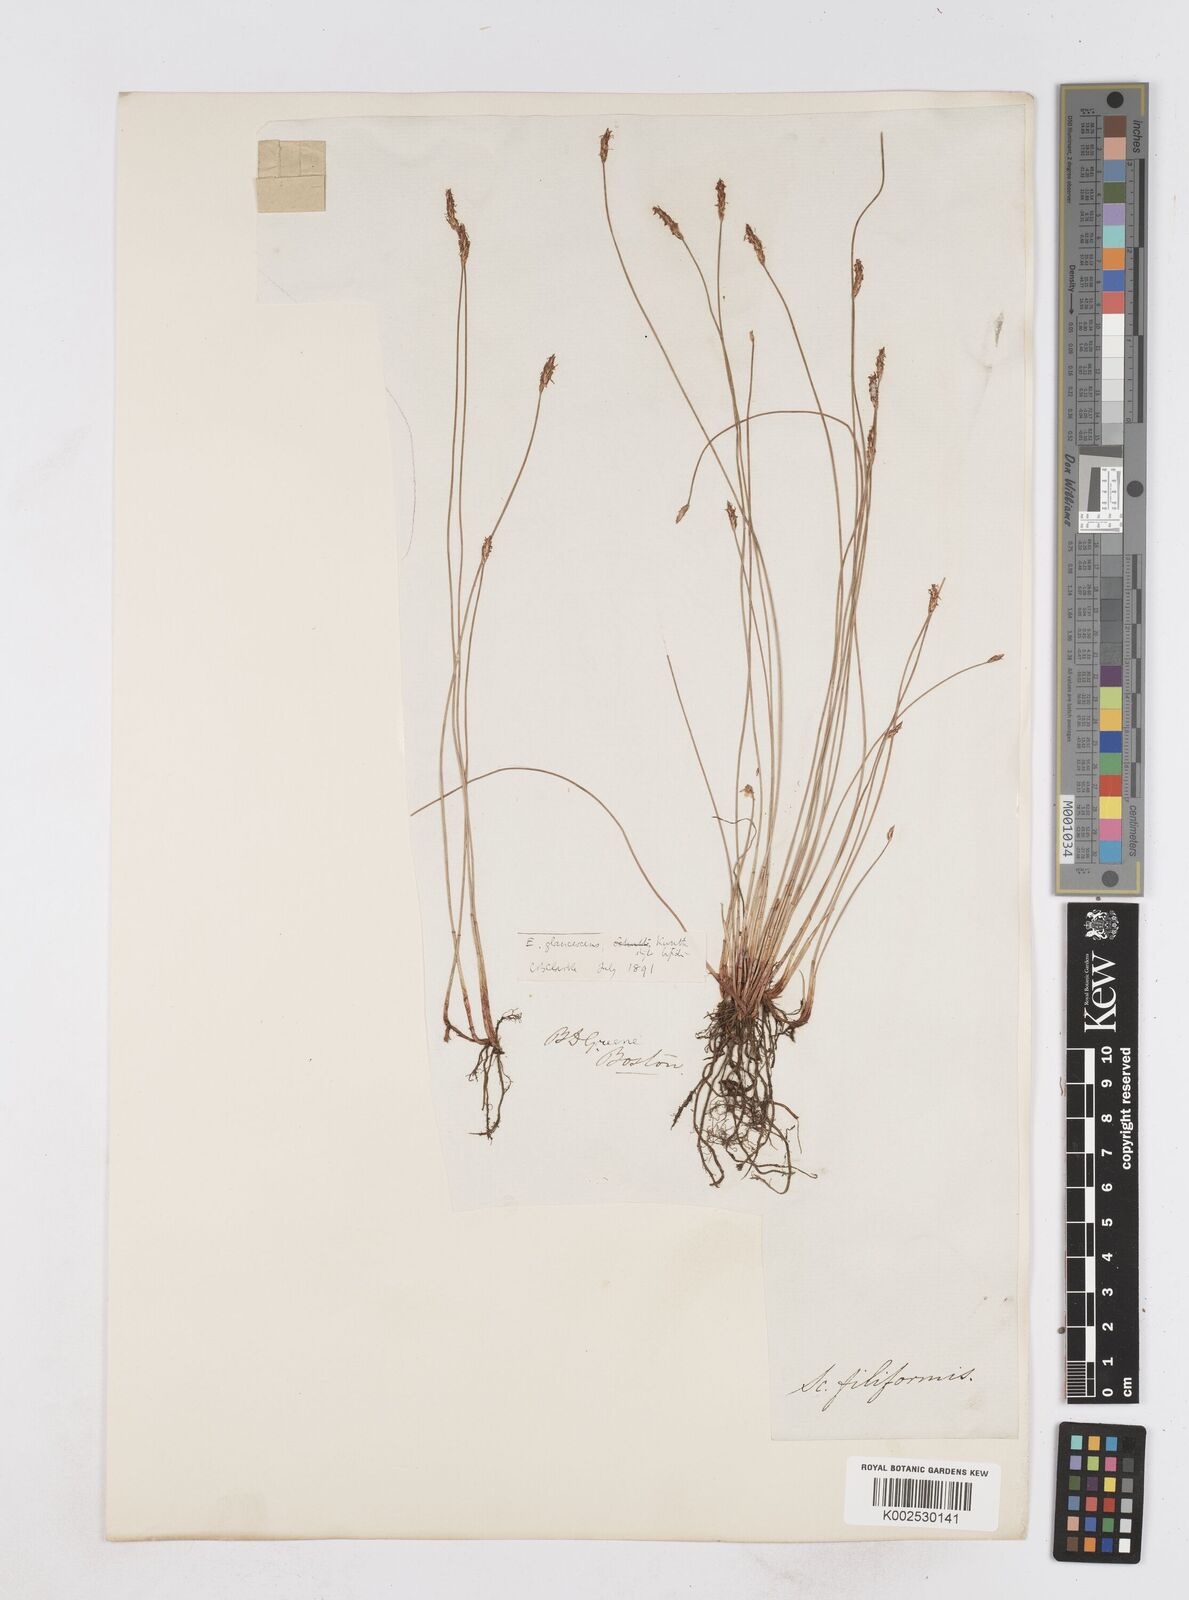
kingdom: Plantae
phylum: Tracheophyta
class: Liliopsida
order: Poales
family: Cyperaceae
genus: Eleocharis
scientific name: Eleocharis erythropoda
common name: Bald spikerush
